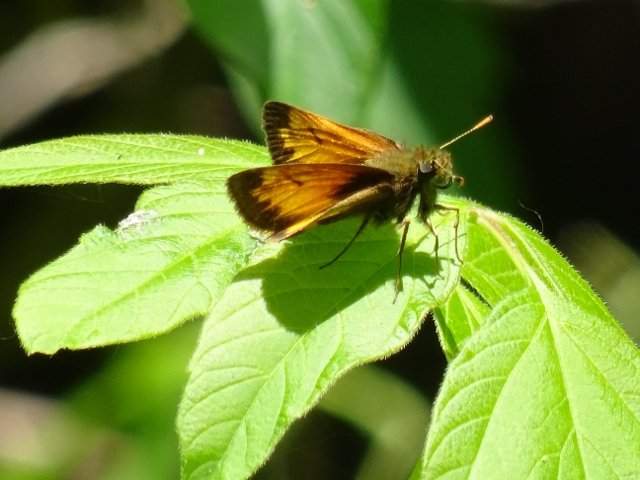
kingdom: Animalia
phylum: Arthropoda
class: Insecta
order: Lepidoptera
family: Hesperiidae
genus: Lon
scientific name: Lon hobomok
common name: Hobomok Skipper
